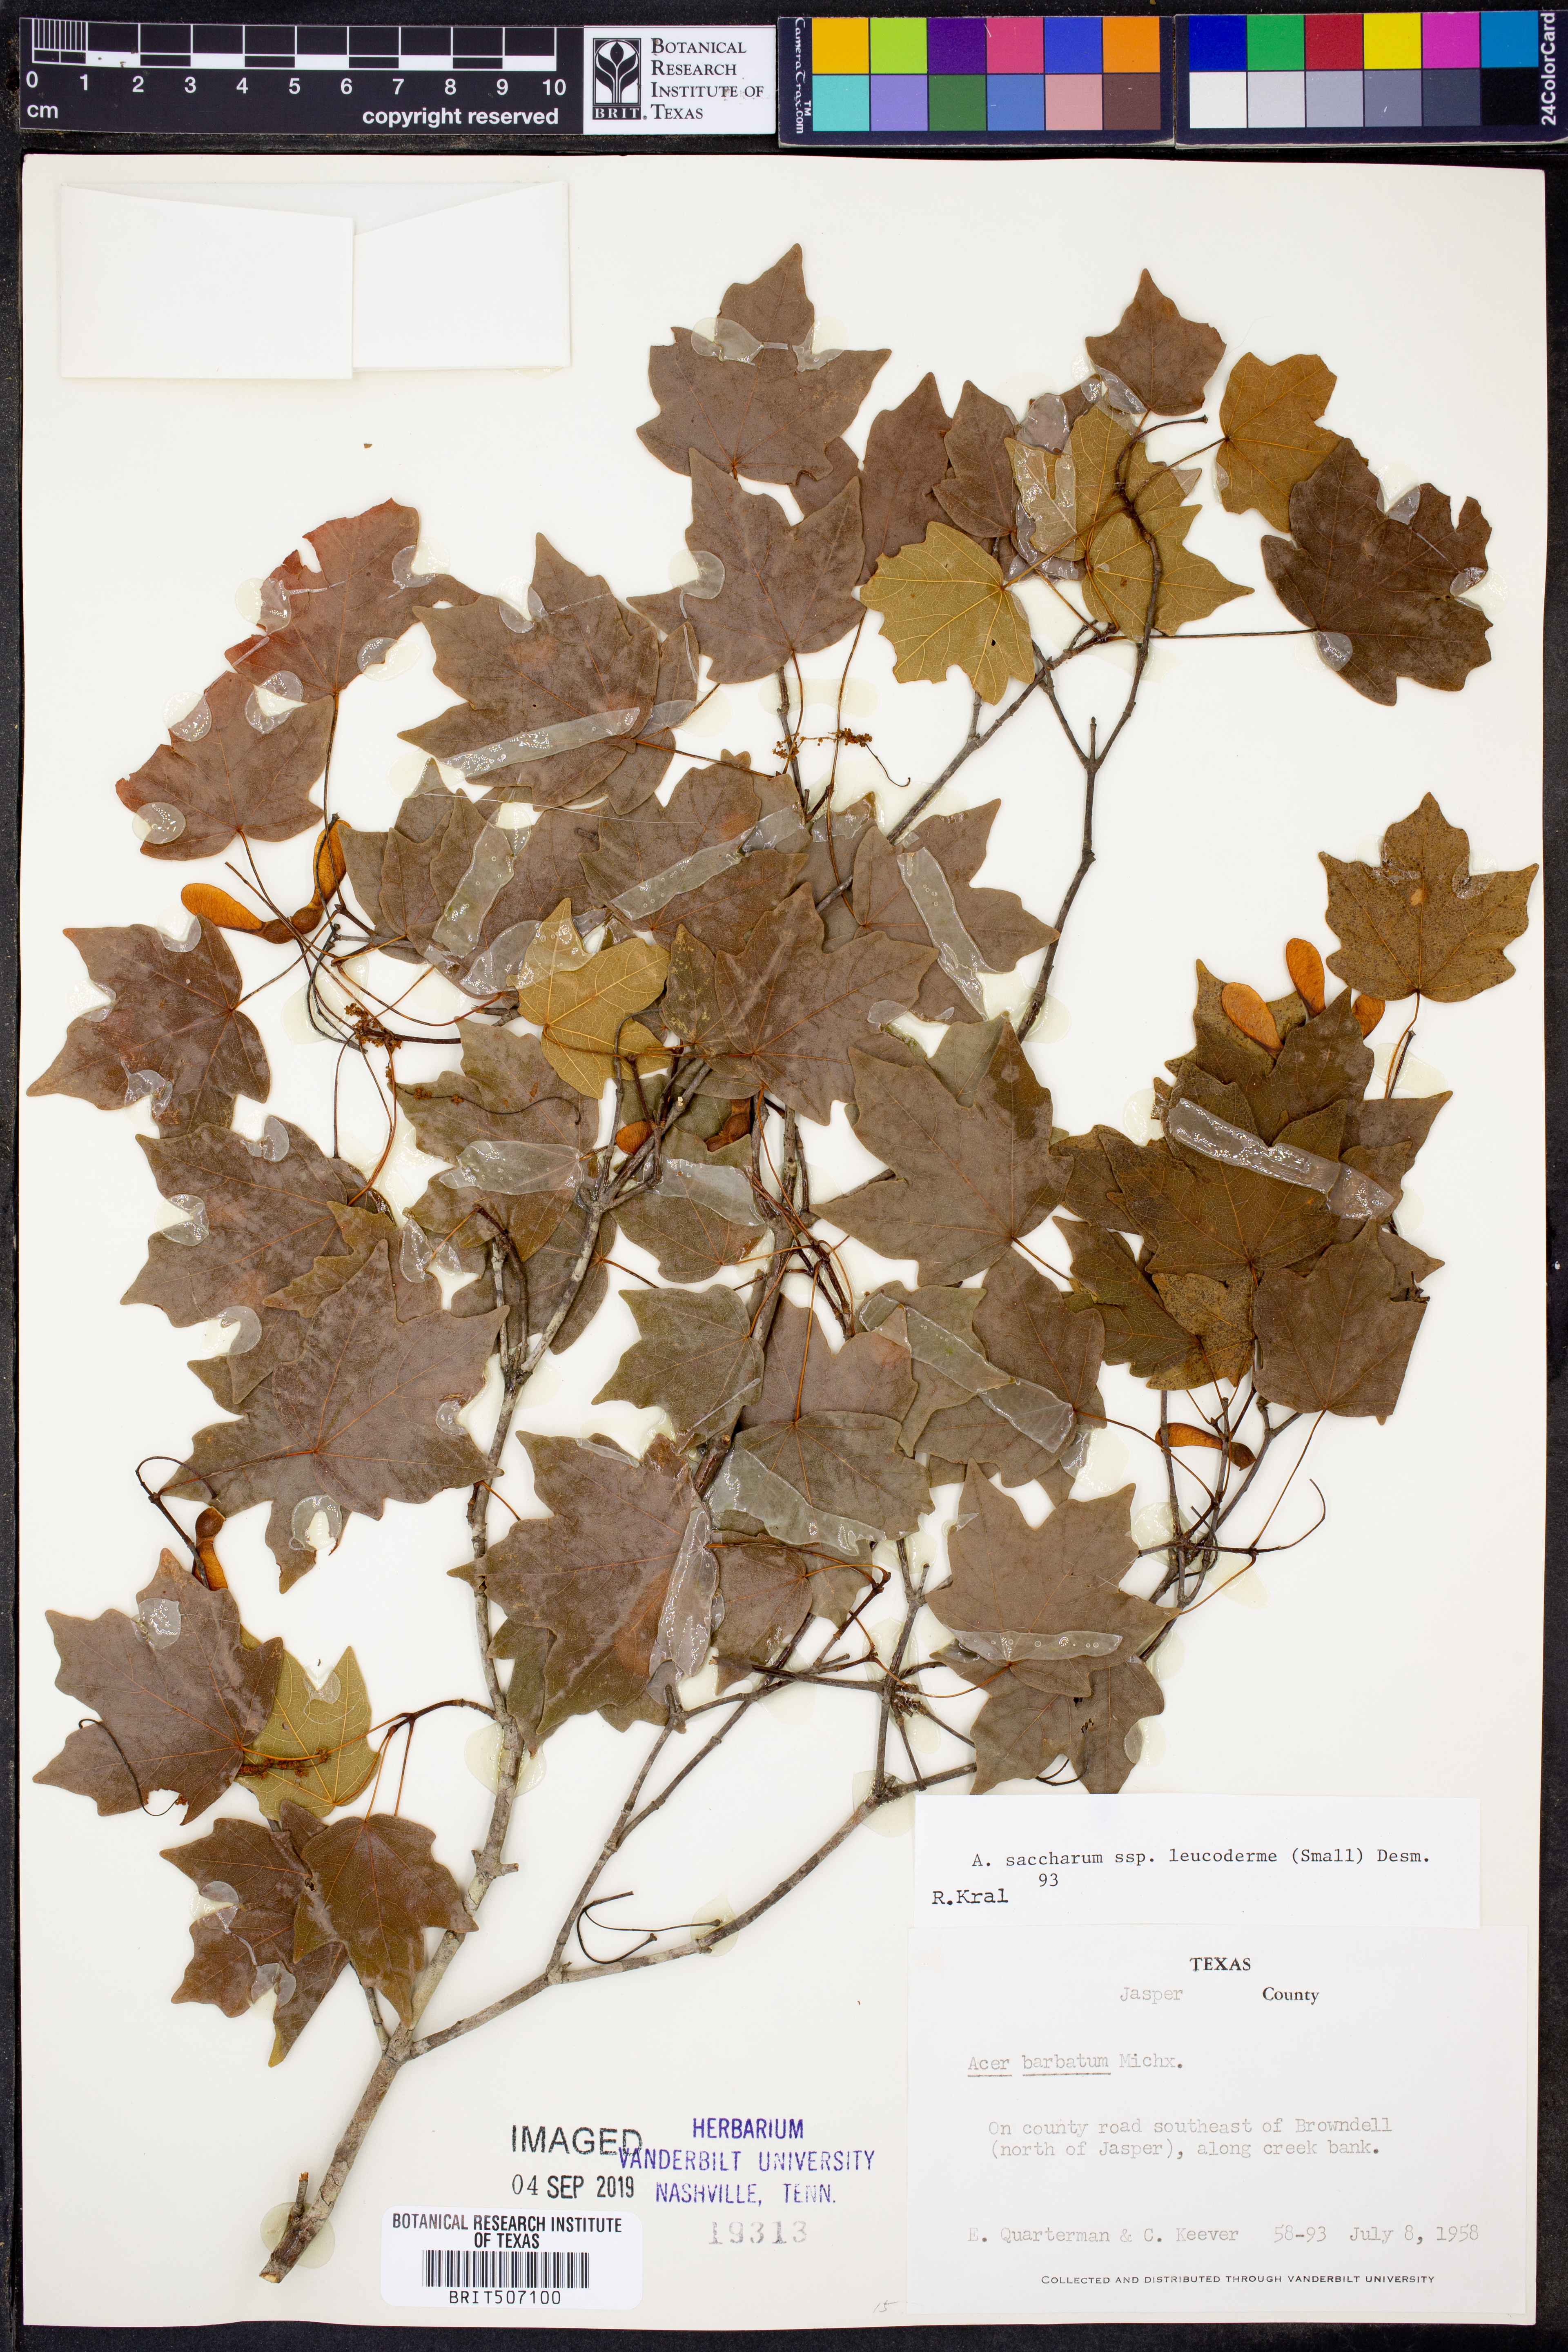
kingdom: Plantae
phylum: Tracheophyta
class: Magnoliopsida
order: Sapindales
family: Sapindaceae
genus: Acer
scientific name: Acer leucoderme
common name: Chalk maple
